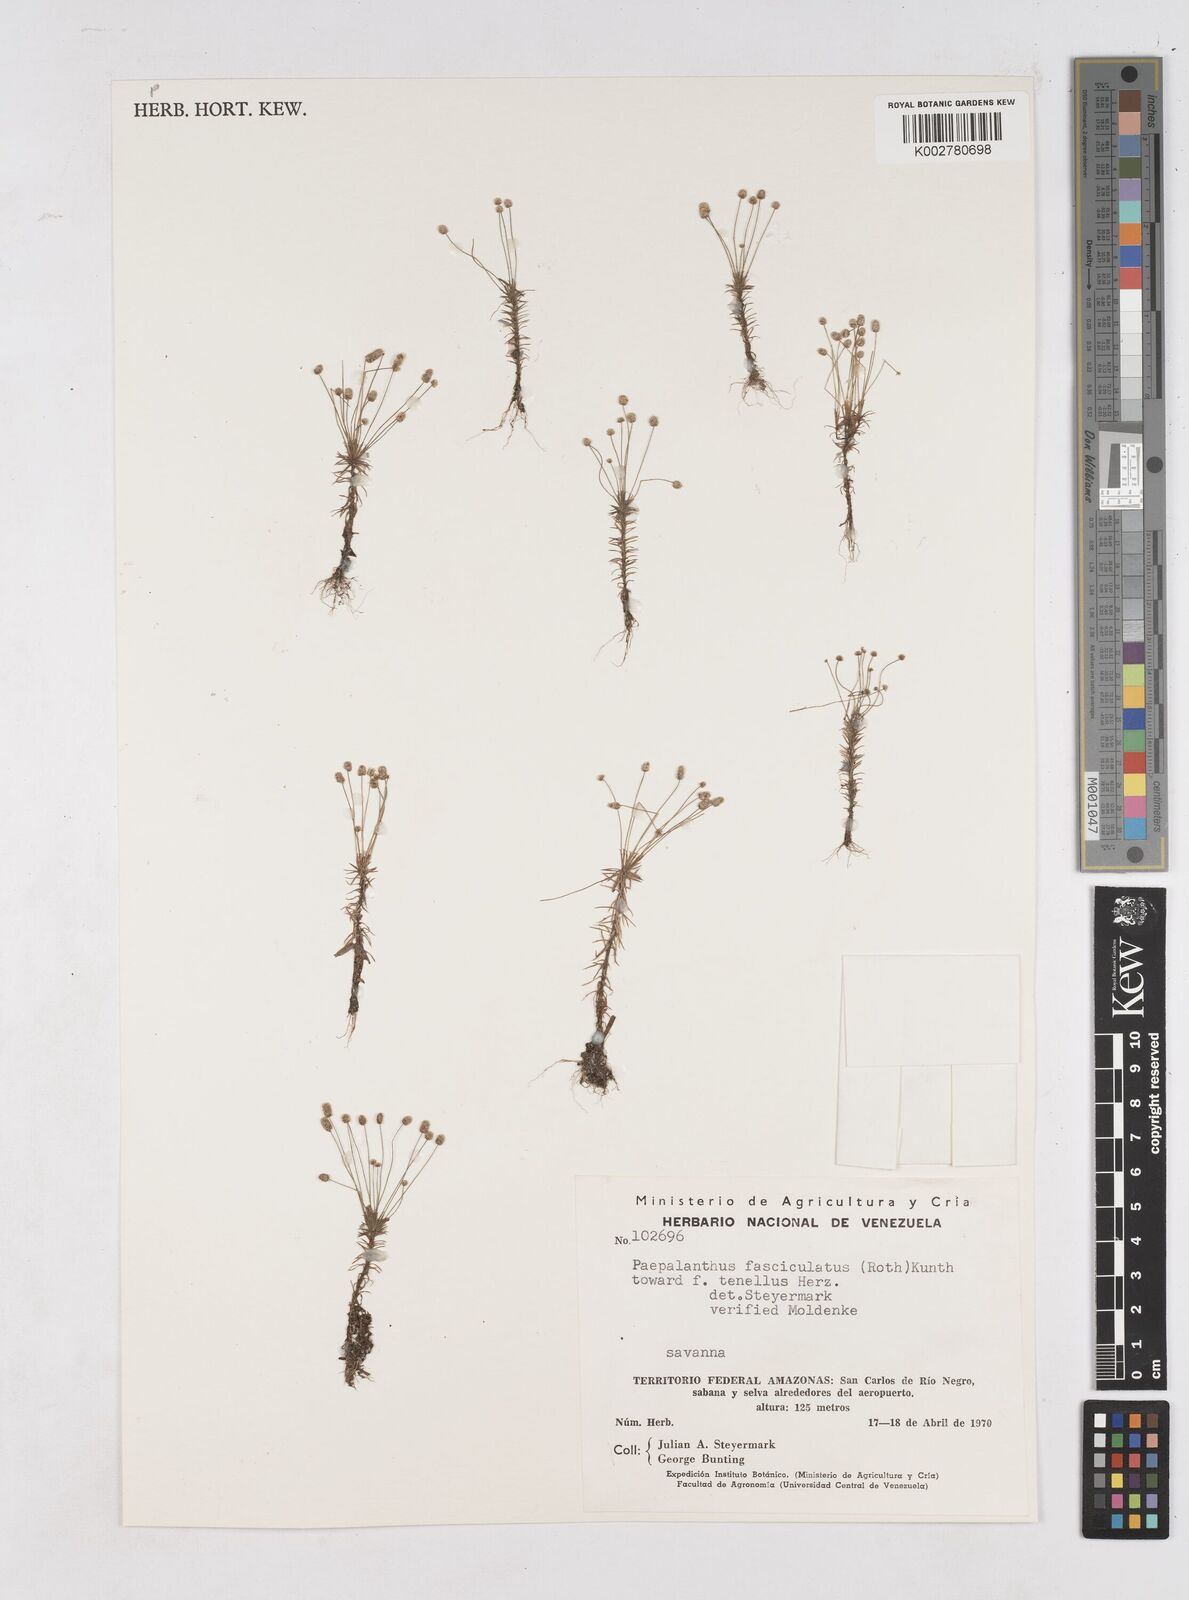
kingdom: Plantae
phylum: Tracheophyta
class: Liliopsida
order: Poales
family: Eriocaulaceae
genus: Paepalanthus
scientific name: Paepalanthus fasciculatus
